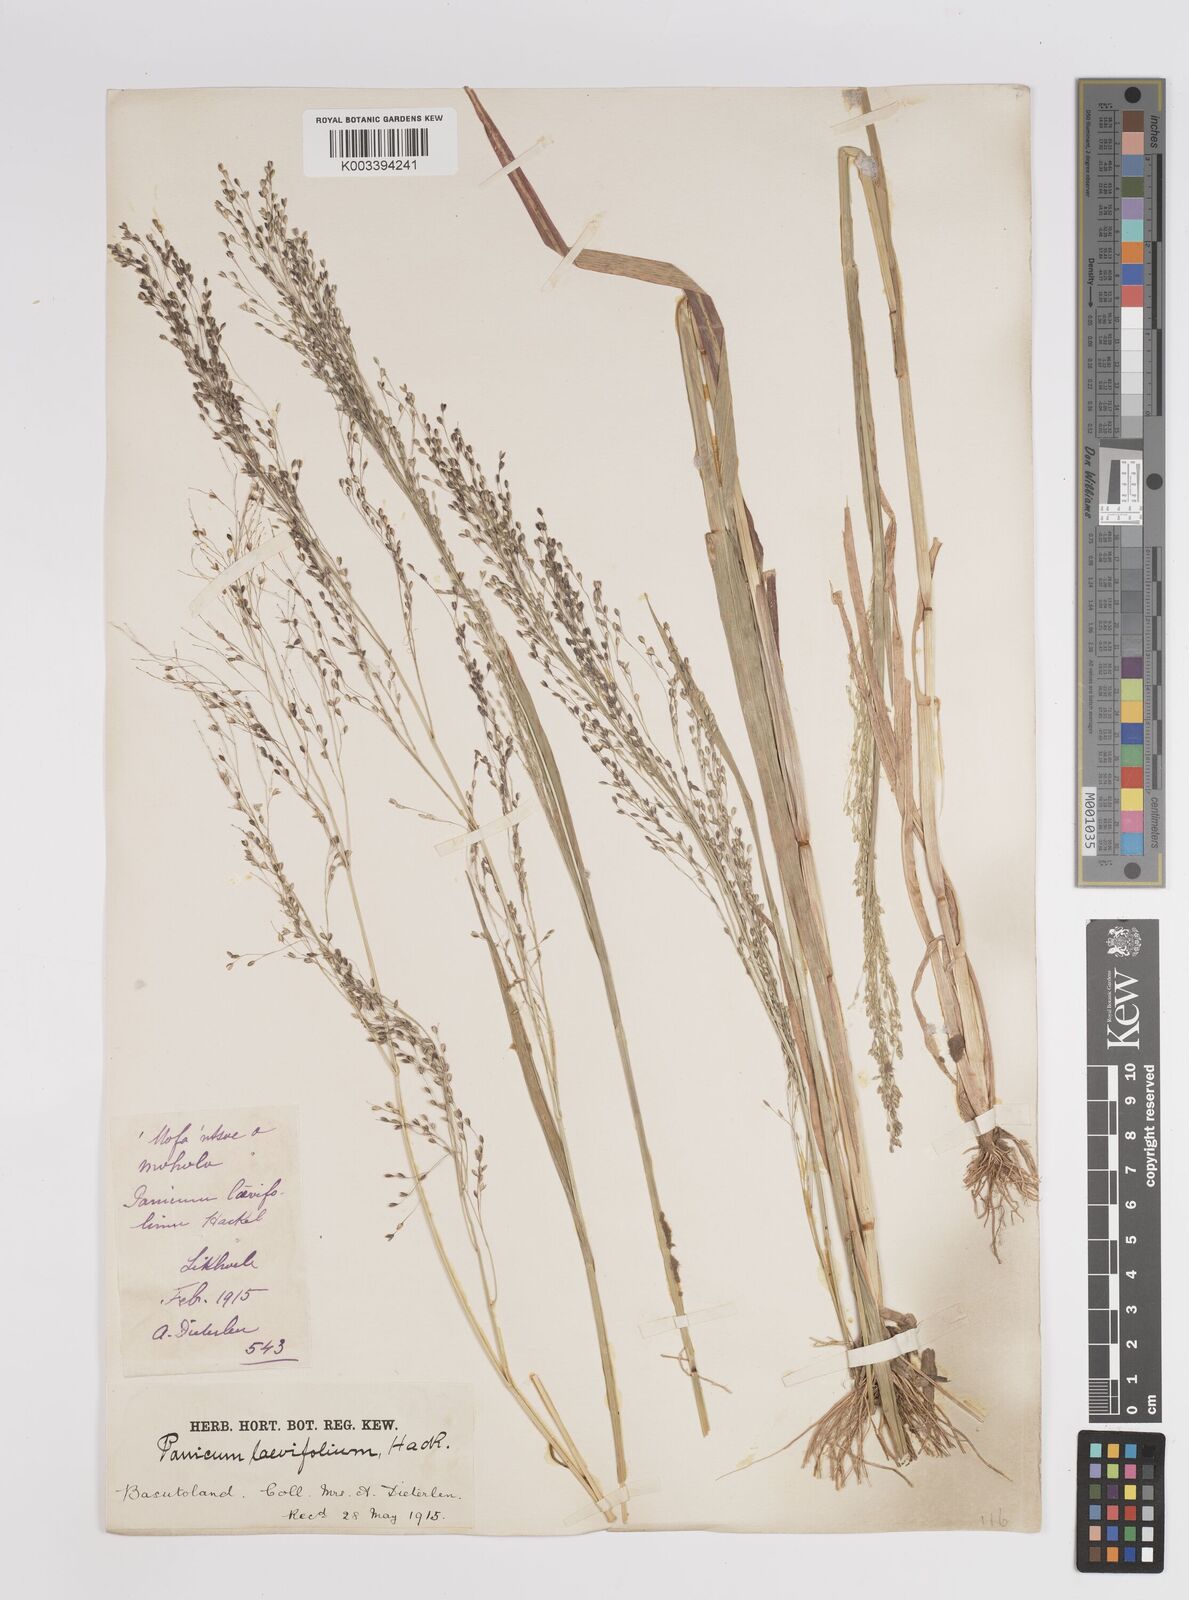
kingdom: Plantae
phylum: Tracheophyta
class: Liliopsida
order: Poales
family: Poaceae
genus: Panicum
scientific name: Panicum schinzii
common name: Sweet grass
